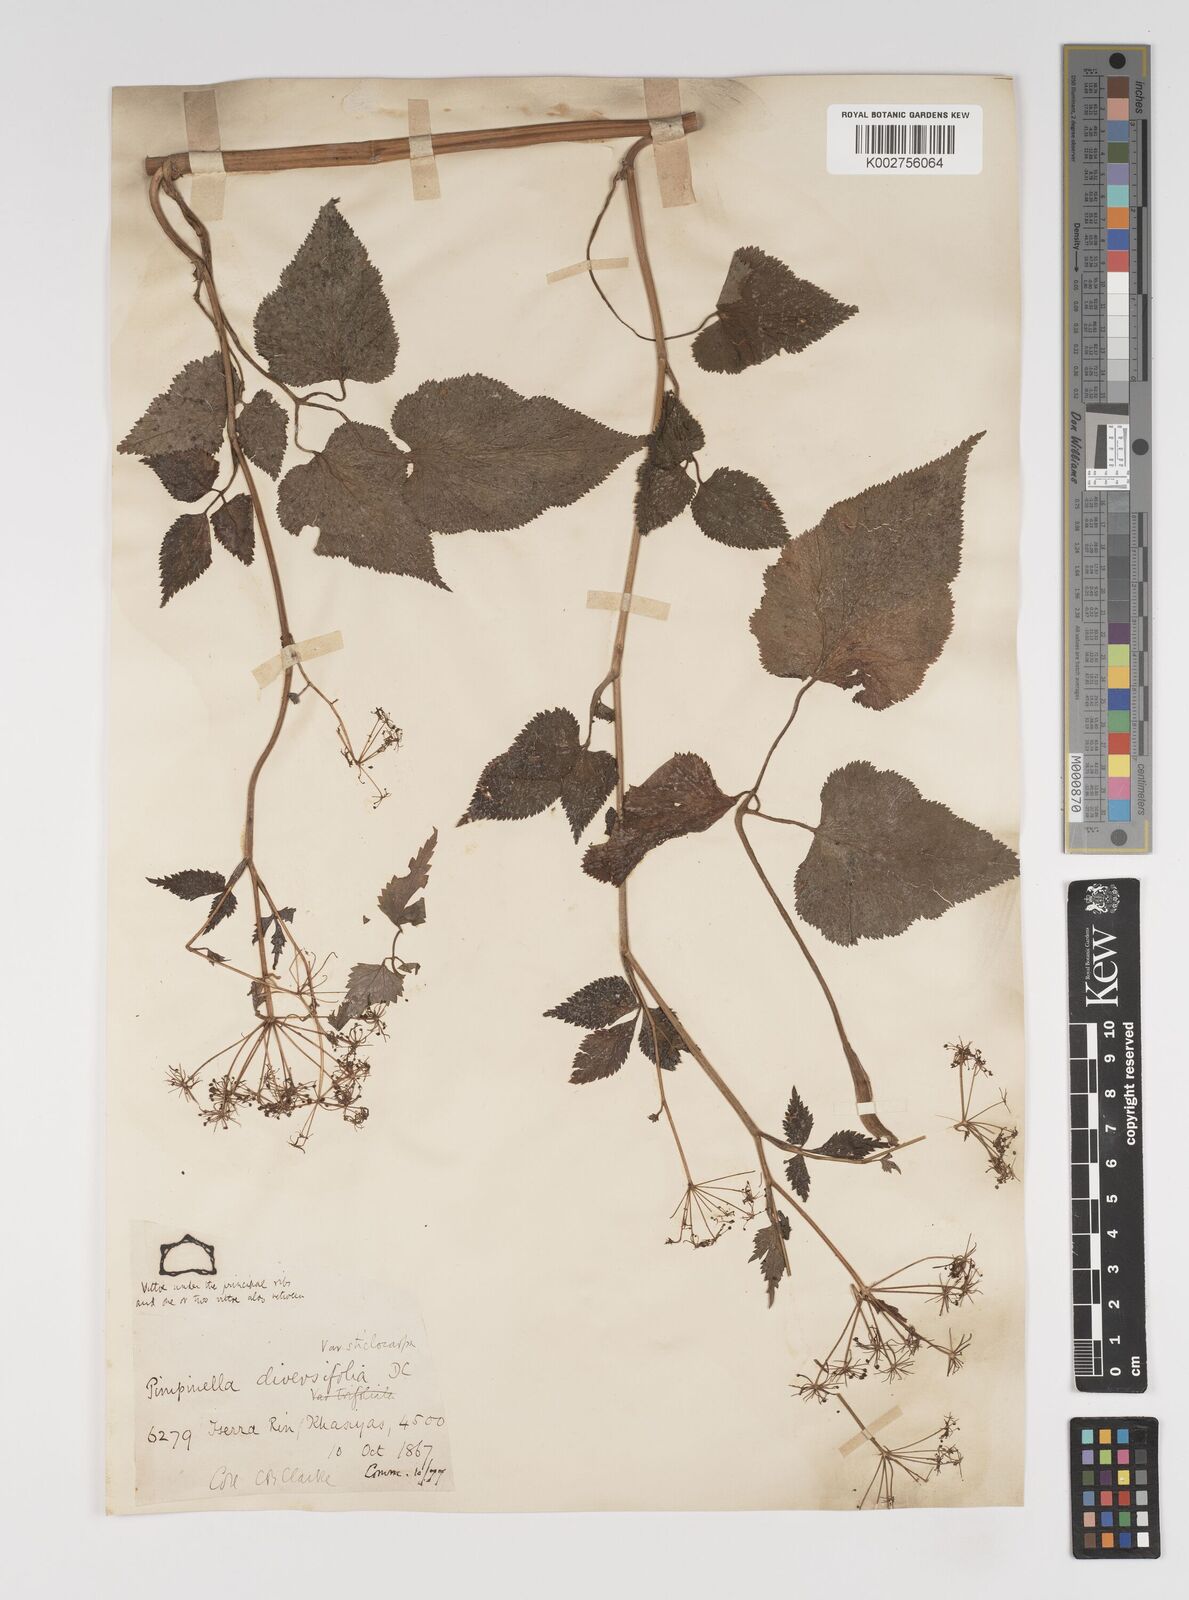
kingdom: Plantae
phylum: Tracheophyta
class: Magnoliopsida
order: Apiales
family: Apiaceae
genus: Pimpinella
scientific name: Pimpinella diversifolia
